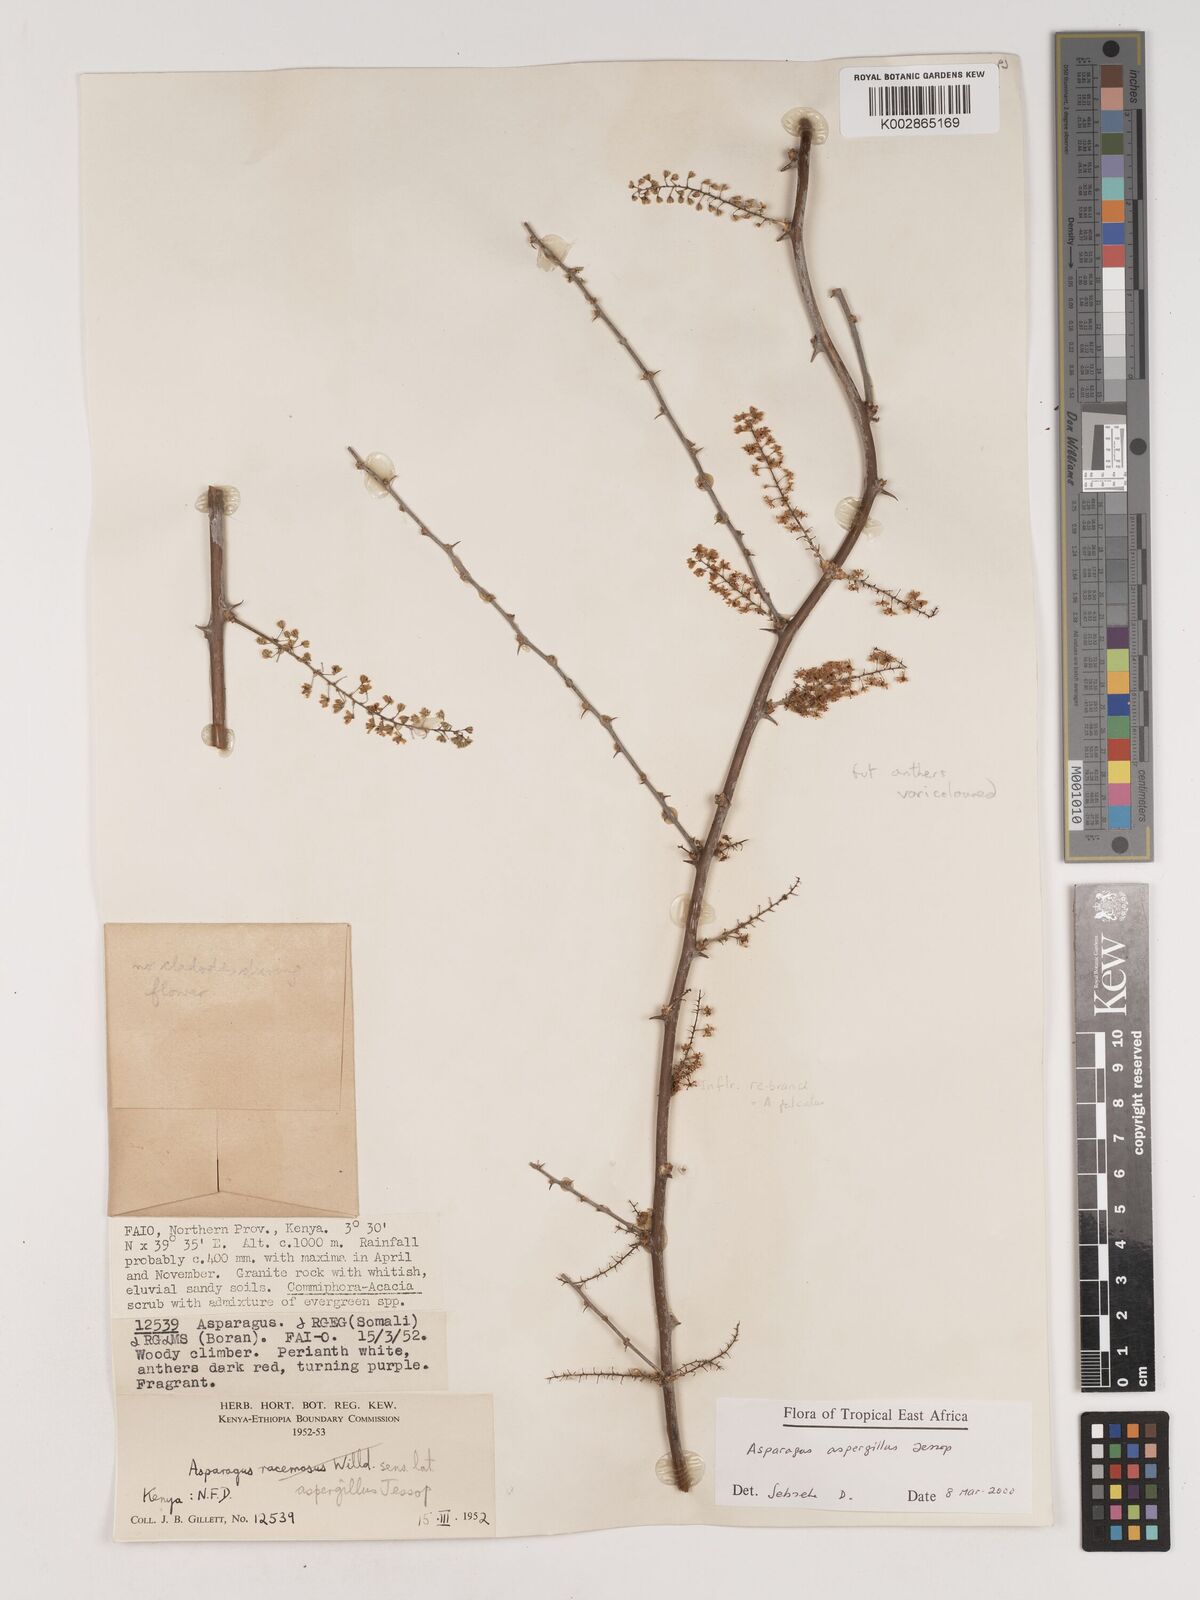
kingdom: Plantae
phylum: Tracheophyta
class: Liliopsida
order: Asparagales
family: Asparagaceae
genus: Asparagus
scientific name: Asparagus aspergillus
